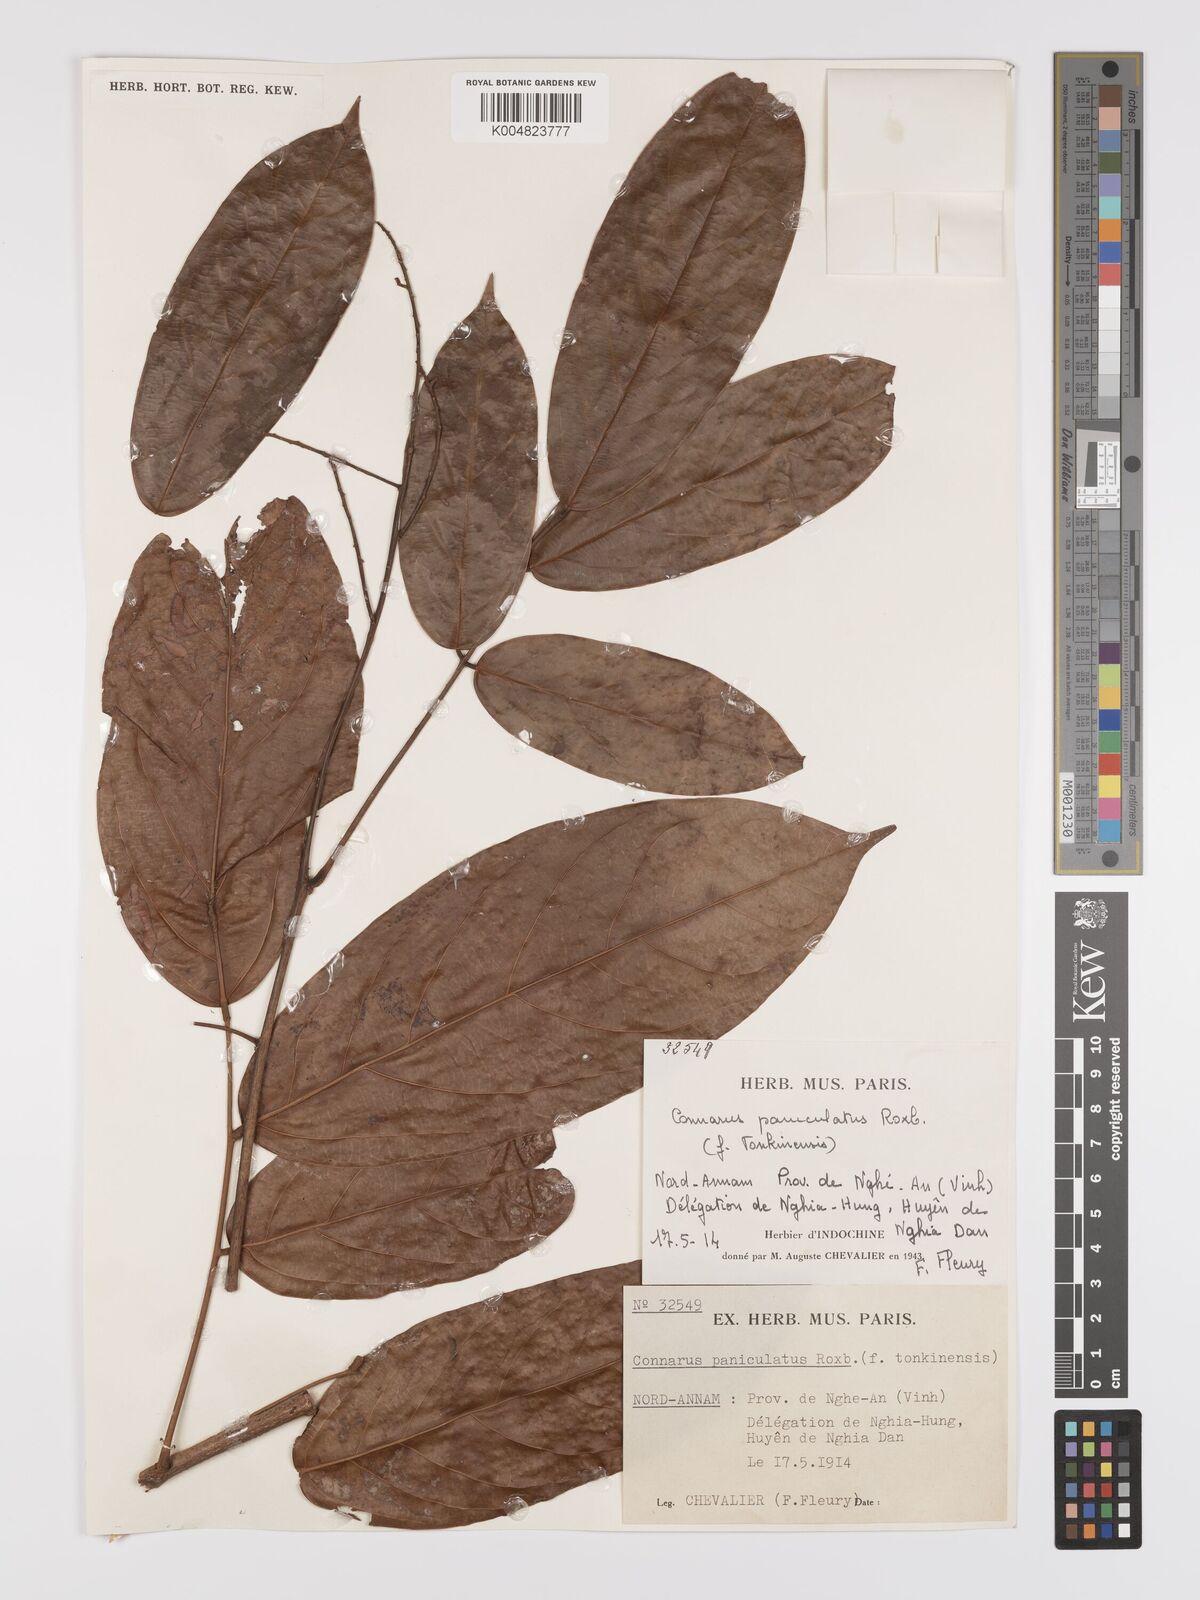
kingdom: Plantae
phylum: Tracheophyta
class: Magnoliopsida
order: Oxalidales
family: Connaraceae
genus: Connarus
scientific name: Connarus paniculatus
